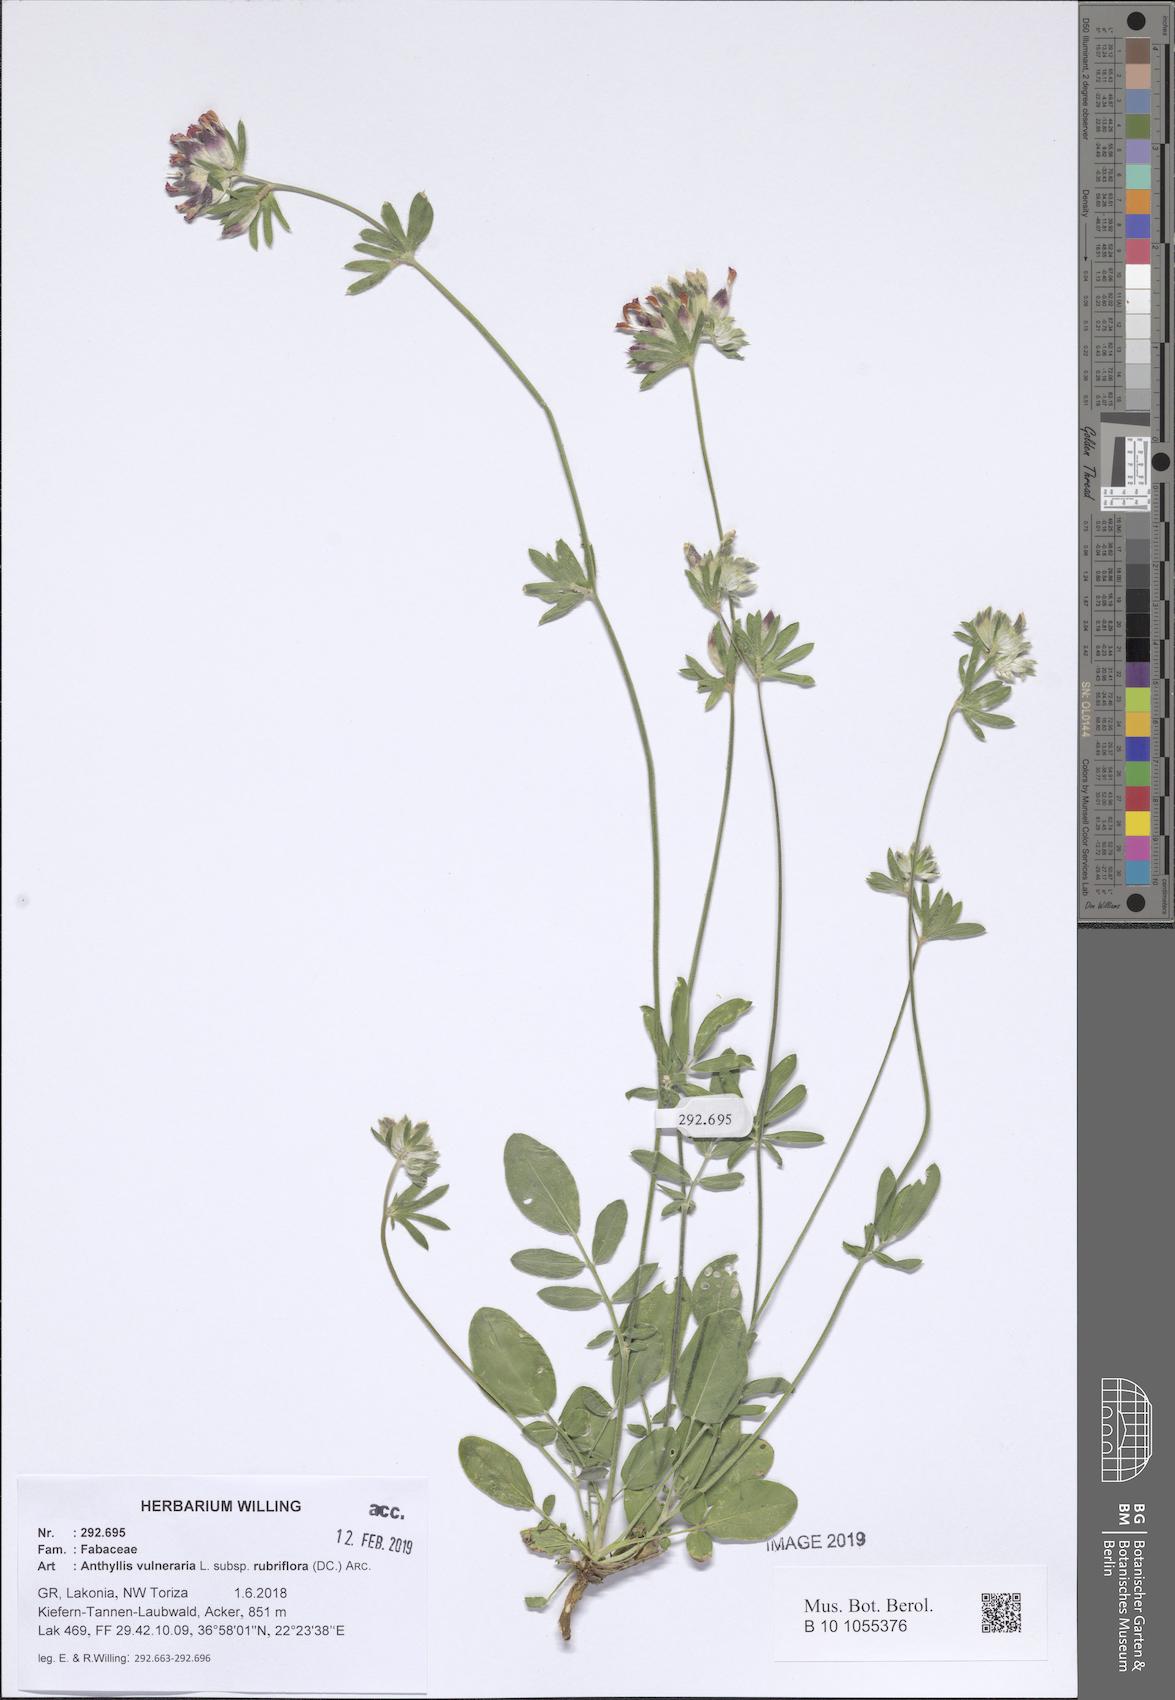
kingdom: Plantae
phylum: Tracheophyta
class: Magnoliopsida
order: Fabales
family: Fabaceae
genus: Anthyllis
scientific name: Anthyllis vulneraria
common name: Kidney vetch
